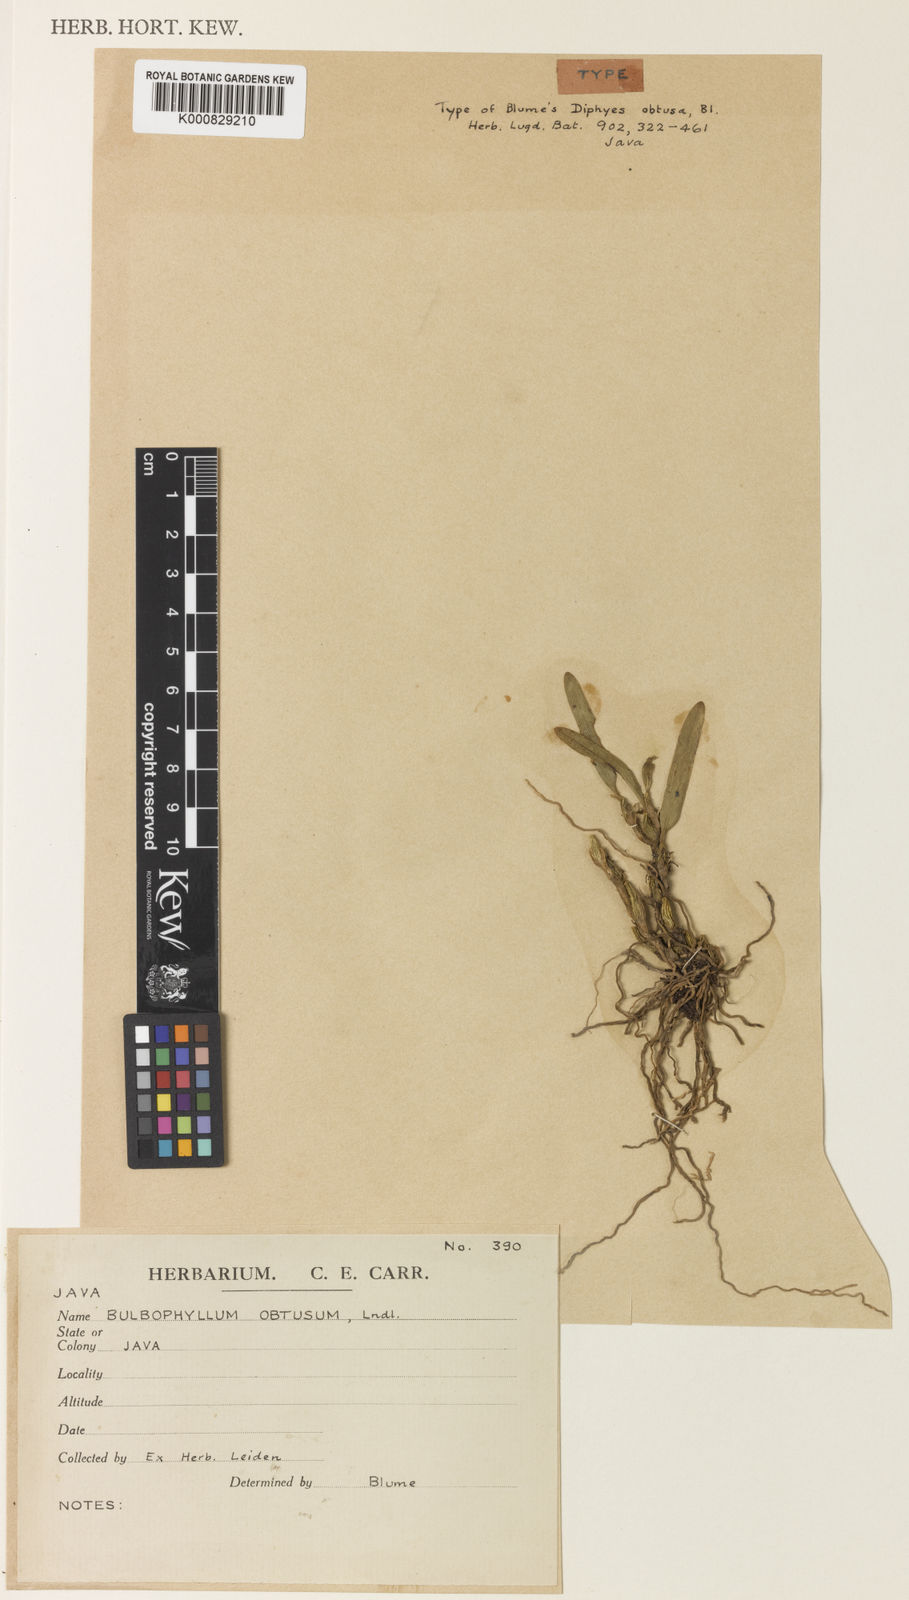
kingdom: Plantae
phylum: Tracheophyta
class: Liliopsida
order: Asparagales
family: Orchidaceae
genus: Bulbophyllum
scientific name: Bulbophyllum obtusatum
